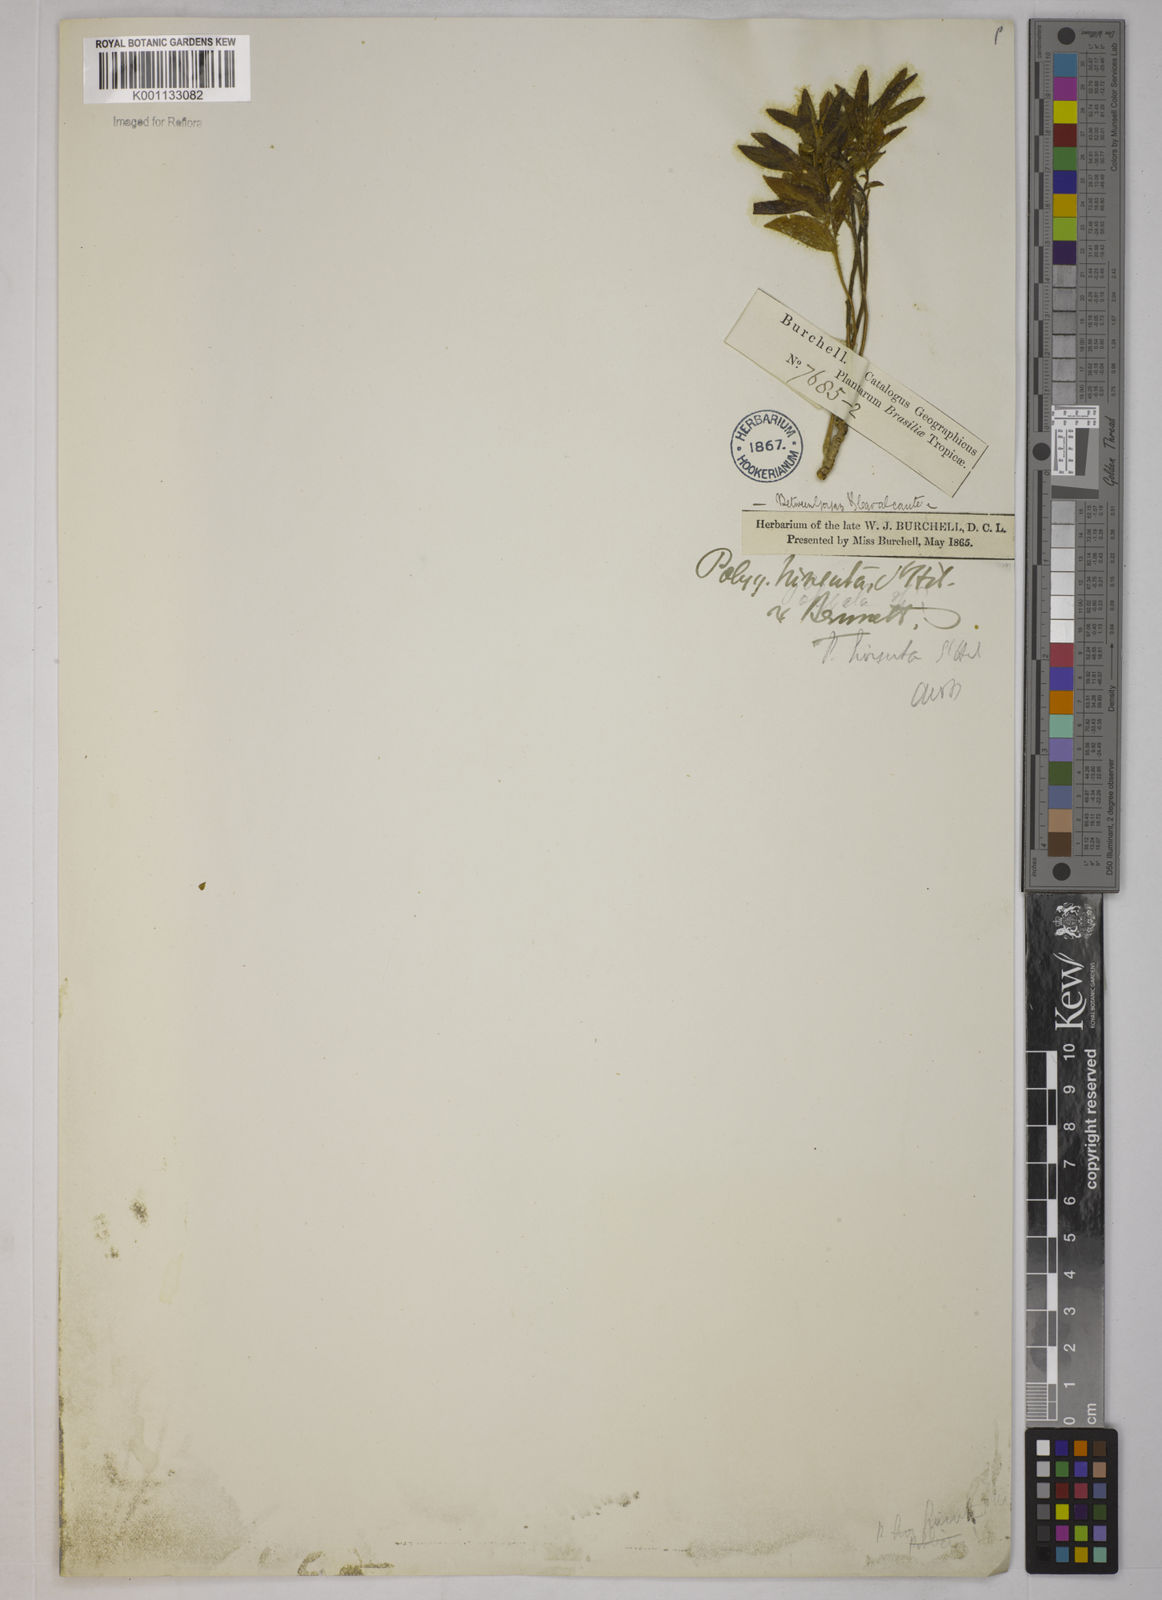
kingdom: Plantae
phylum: Tracheophyta
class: Magnoliopsida
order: Fabales
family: Polygalaceae
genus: Asemeia
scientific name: Asemeia hirsuta
